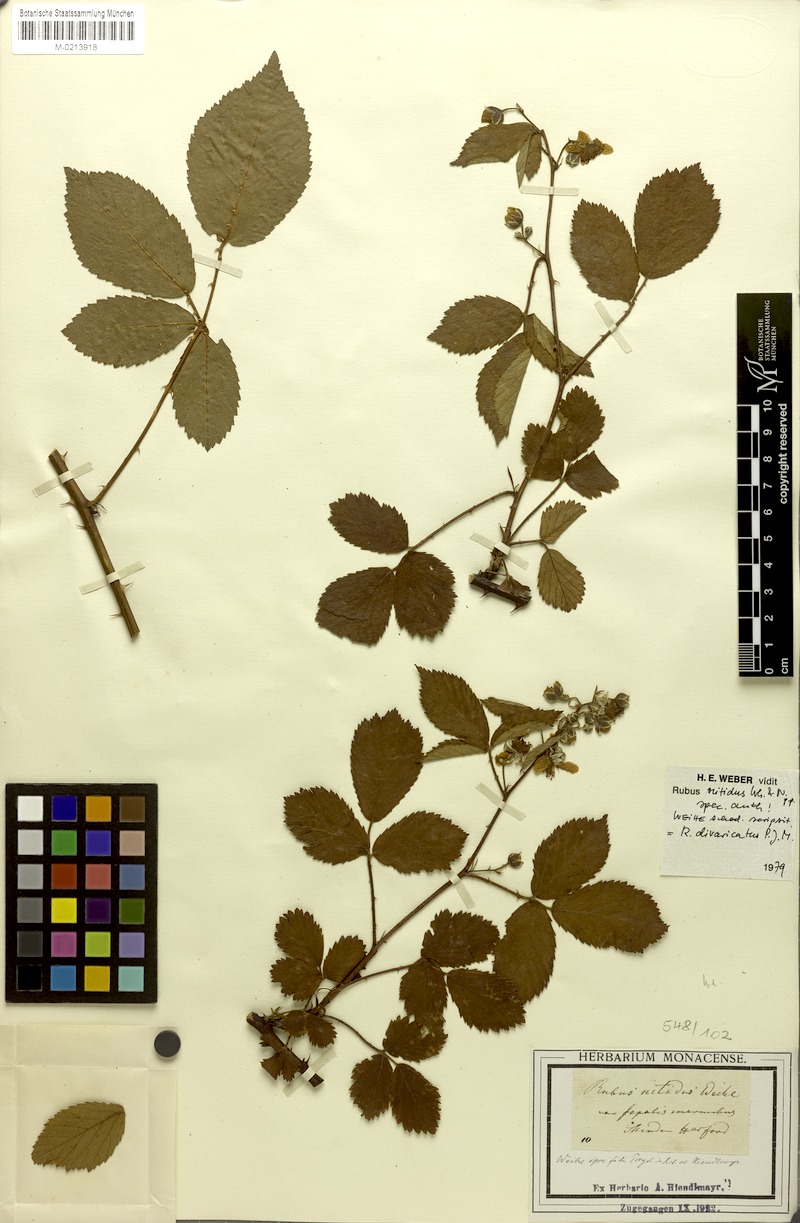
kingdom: Plantae
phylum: Tracheophyta
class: Magnoliopsida
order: Rosales
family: Rosaceae
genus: Rubus
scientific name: Rubus divaricatus
